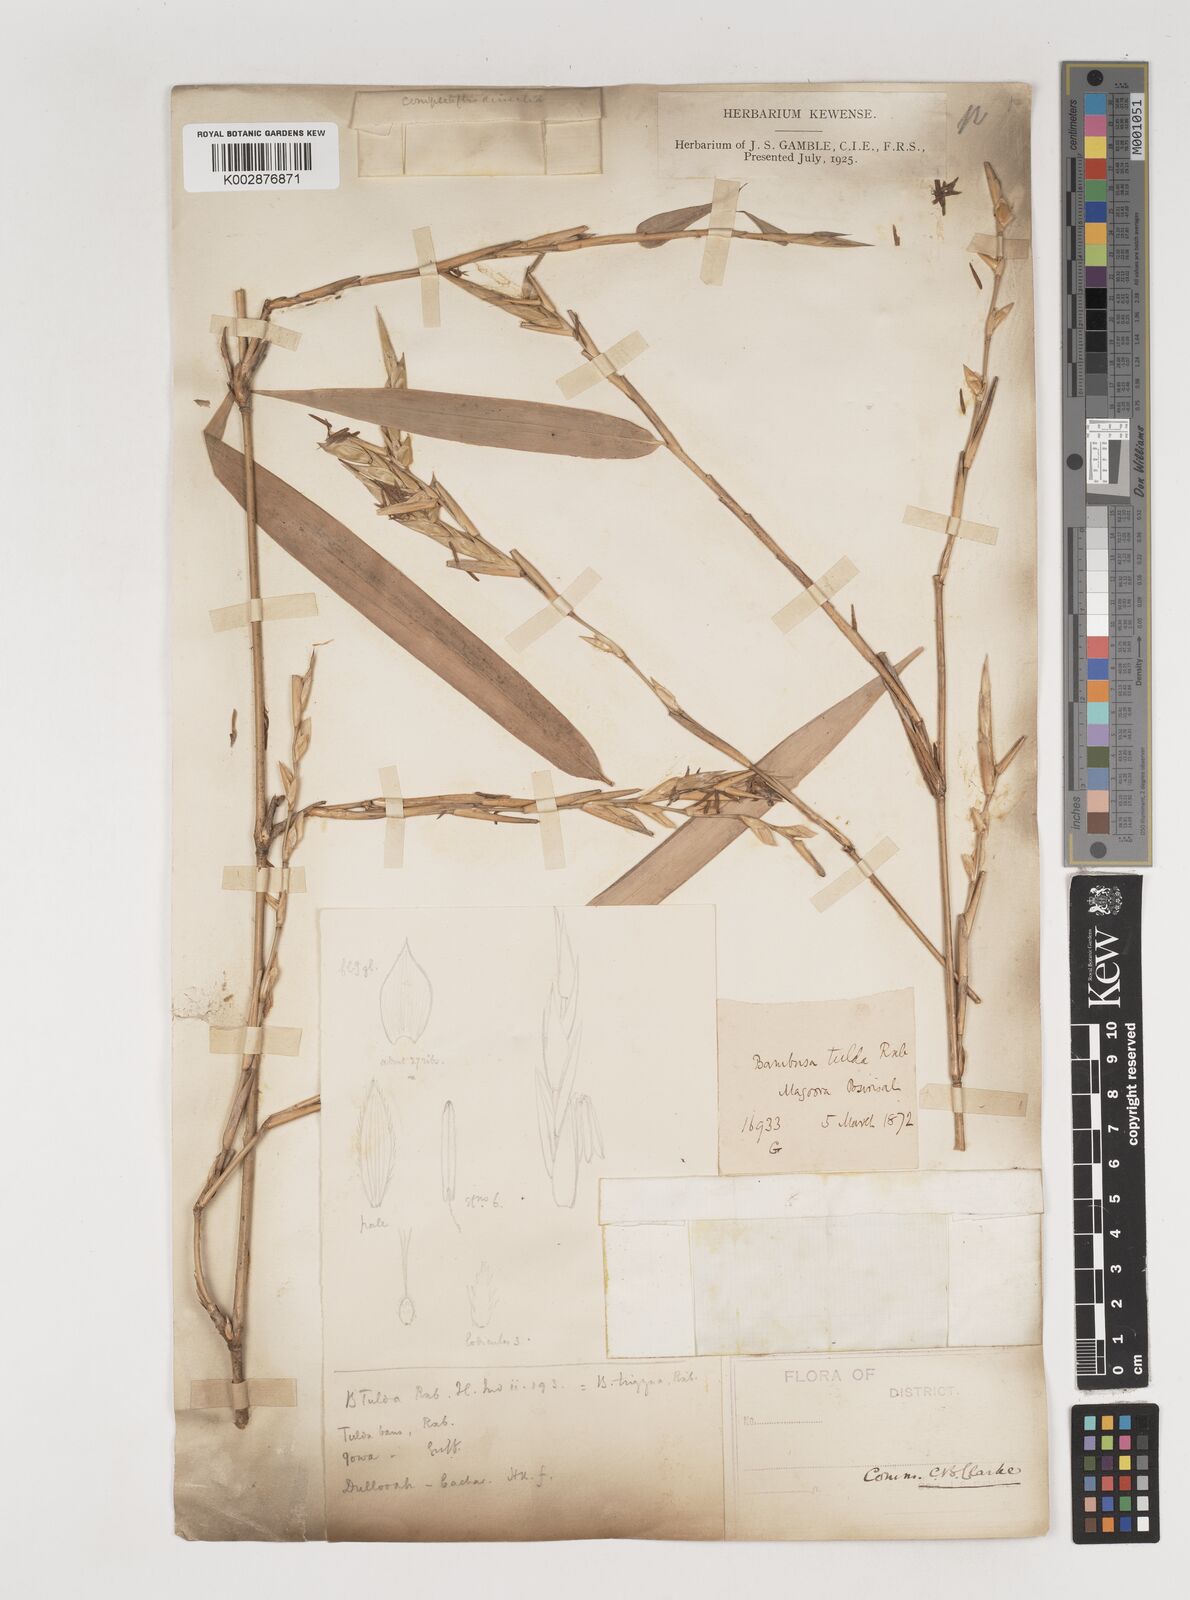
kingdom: Plantae
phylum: Tracheophyta
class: Liliopsida
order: Poales
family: Poaceae
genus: Bambusa
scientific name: Bambusa tuldoides
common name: Verdant bamboo
